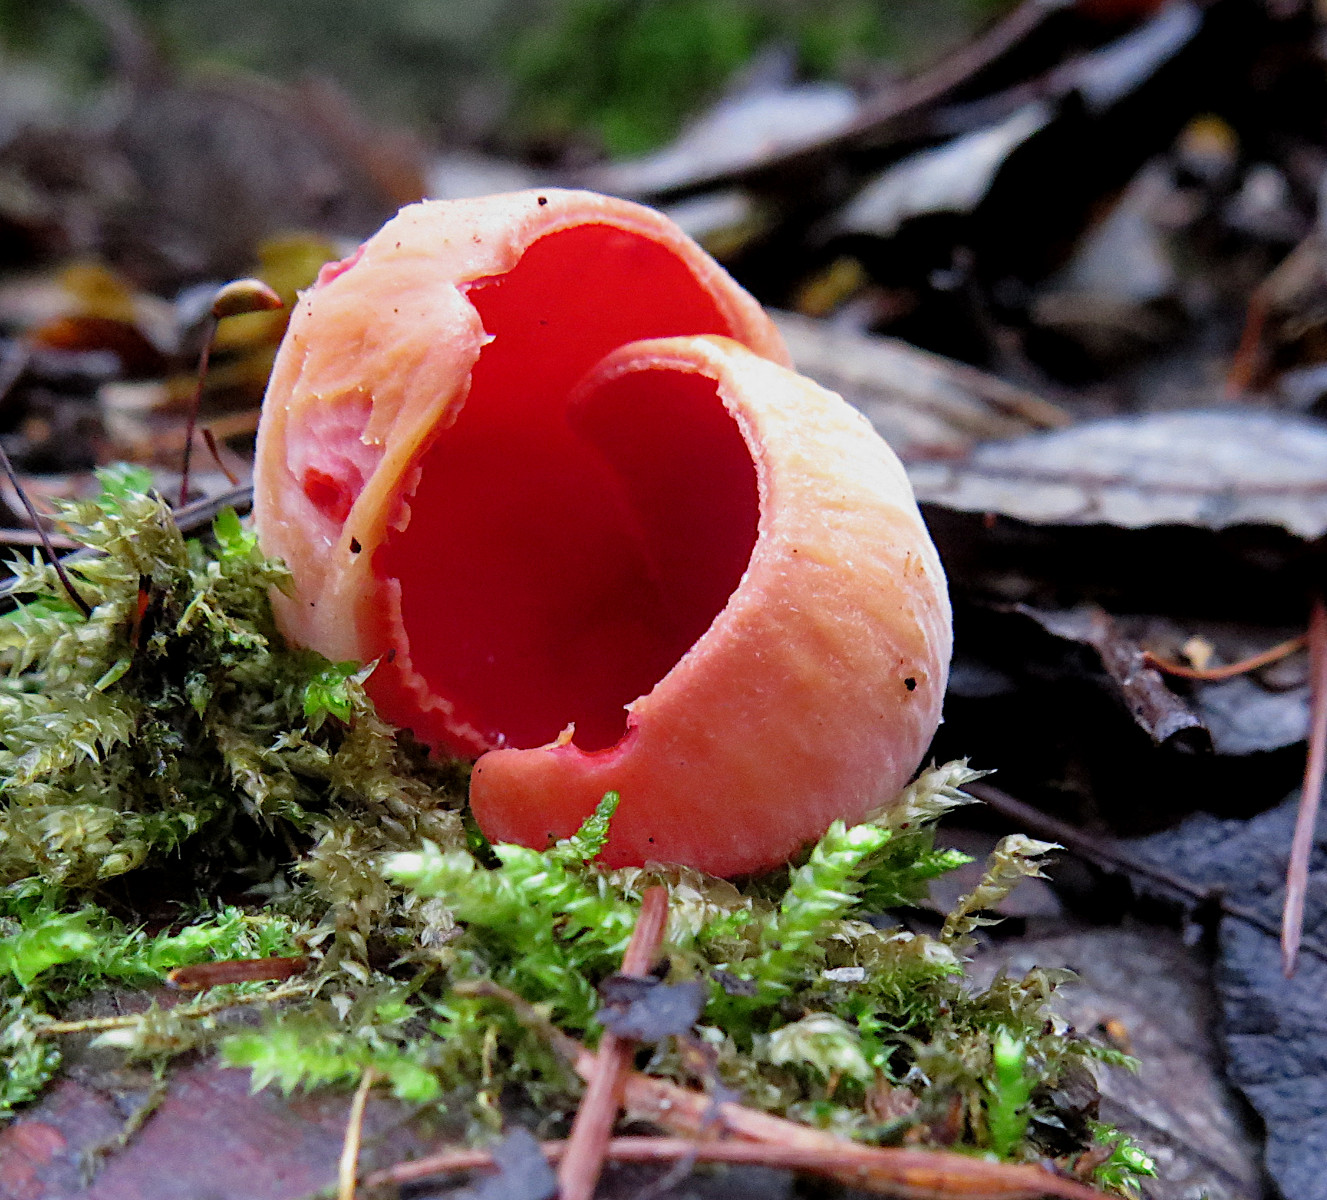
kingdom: Fungi
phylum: Ascomycota
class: Pezizomycetes
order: Pezizales
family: Sarcoscyphaceae
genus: Sarcoscypha
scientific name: Sarcoscypha austriaca
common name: krølhåret pragtbæger
